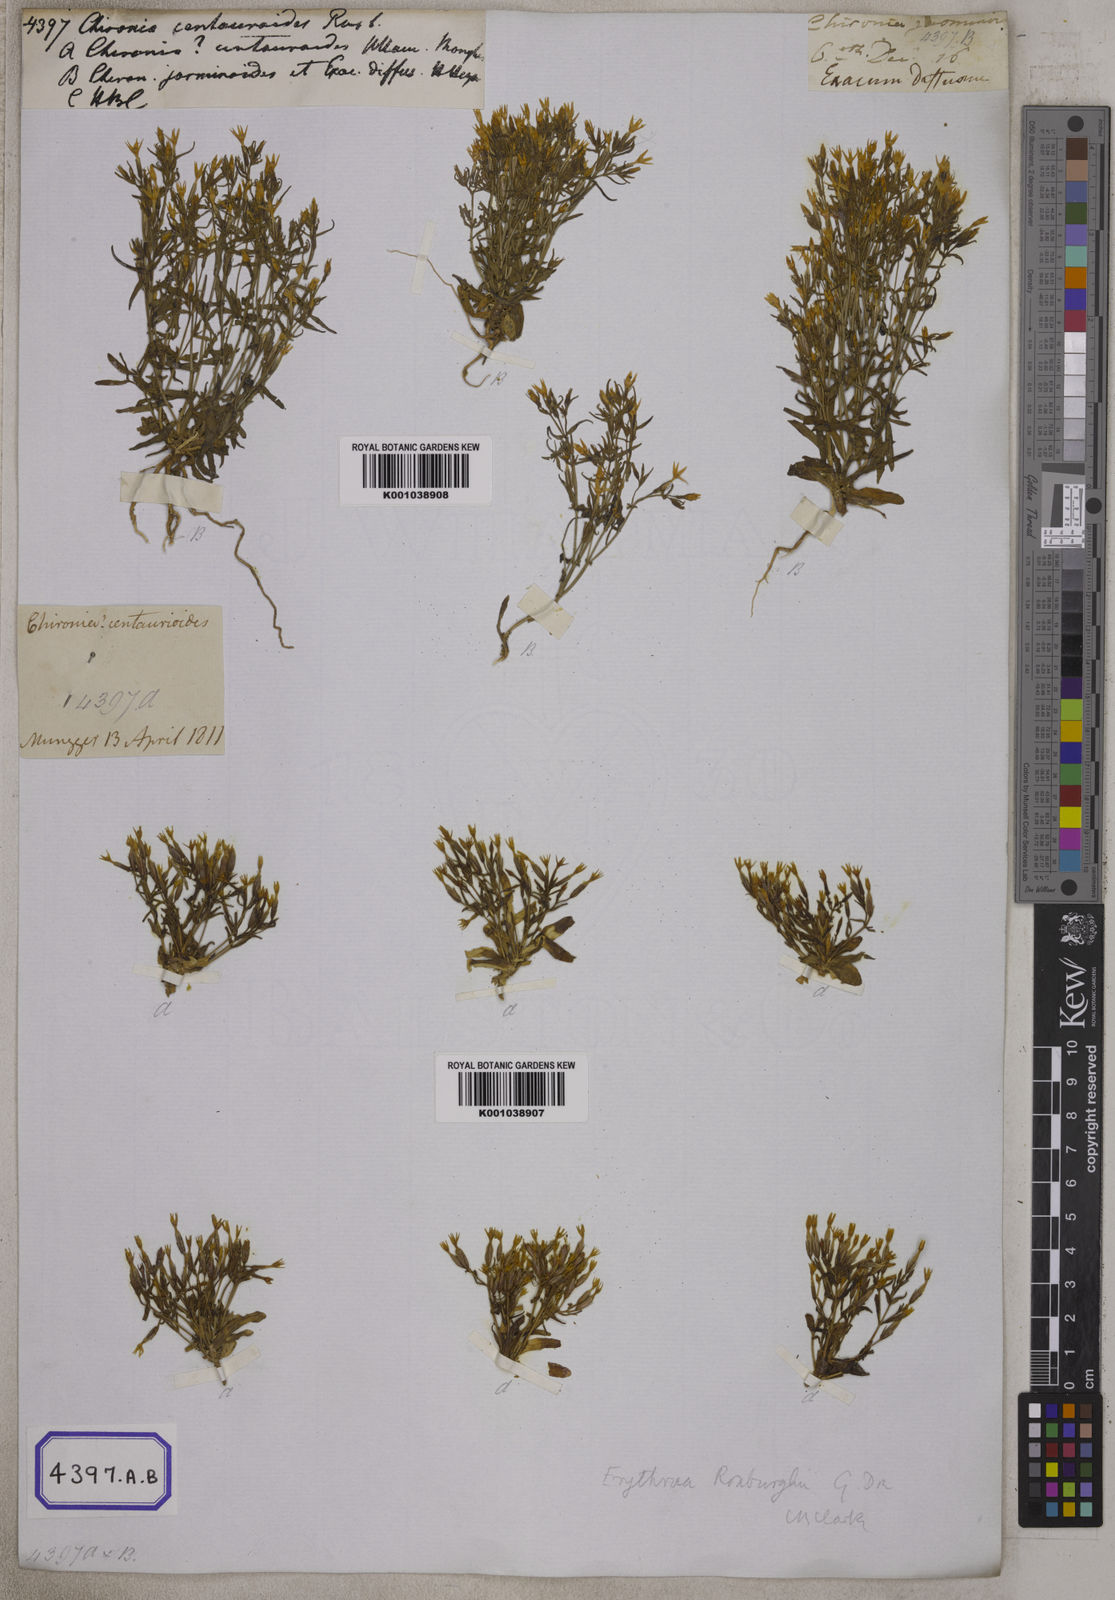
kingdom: Plantae
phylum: Tracheophyta
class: Magnoliopsida
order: Gentianales
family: Gentianaceae
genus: Centaurium
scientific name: Centaurium centaurioides
